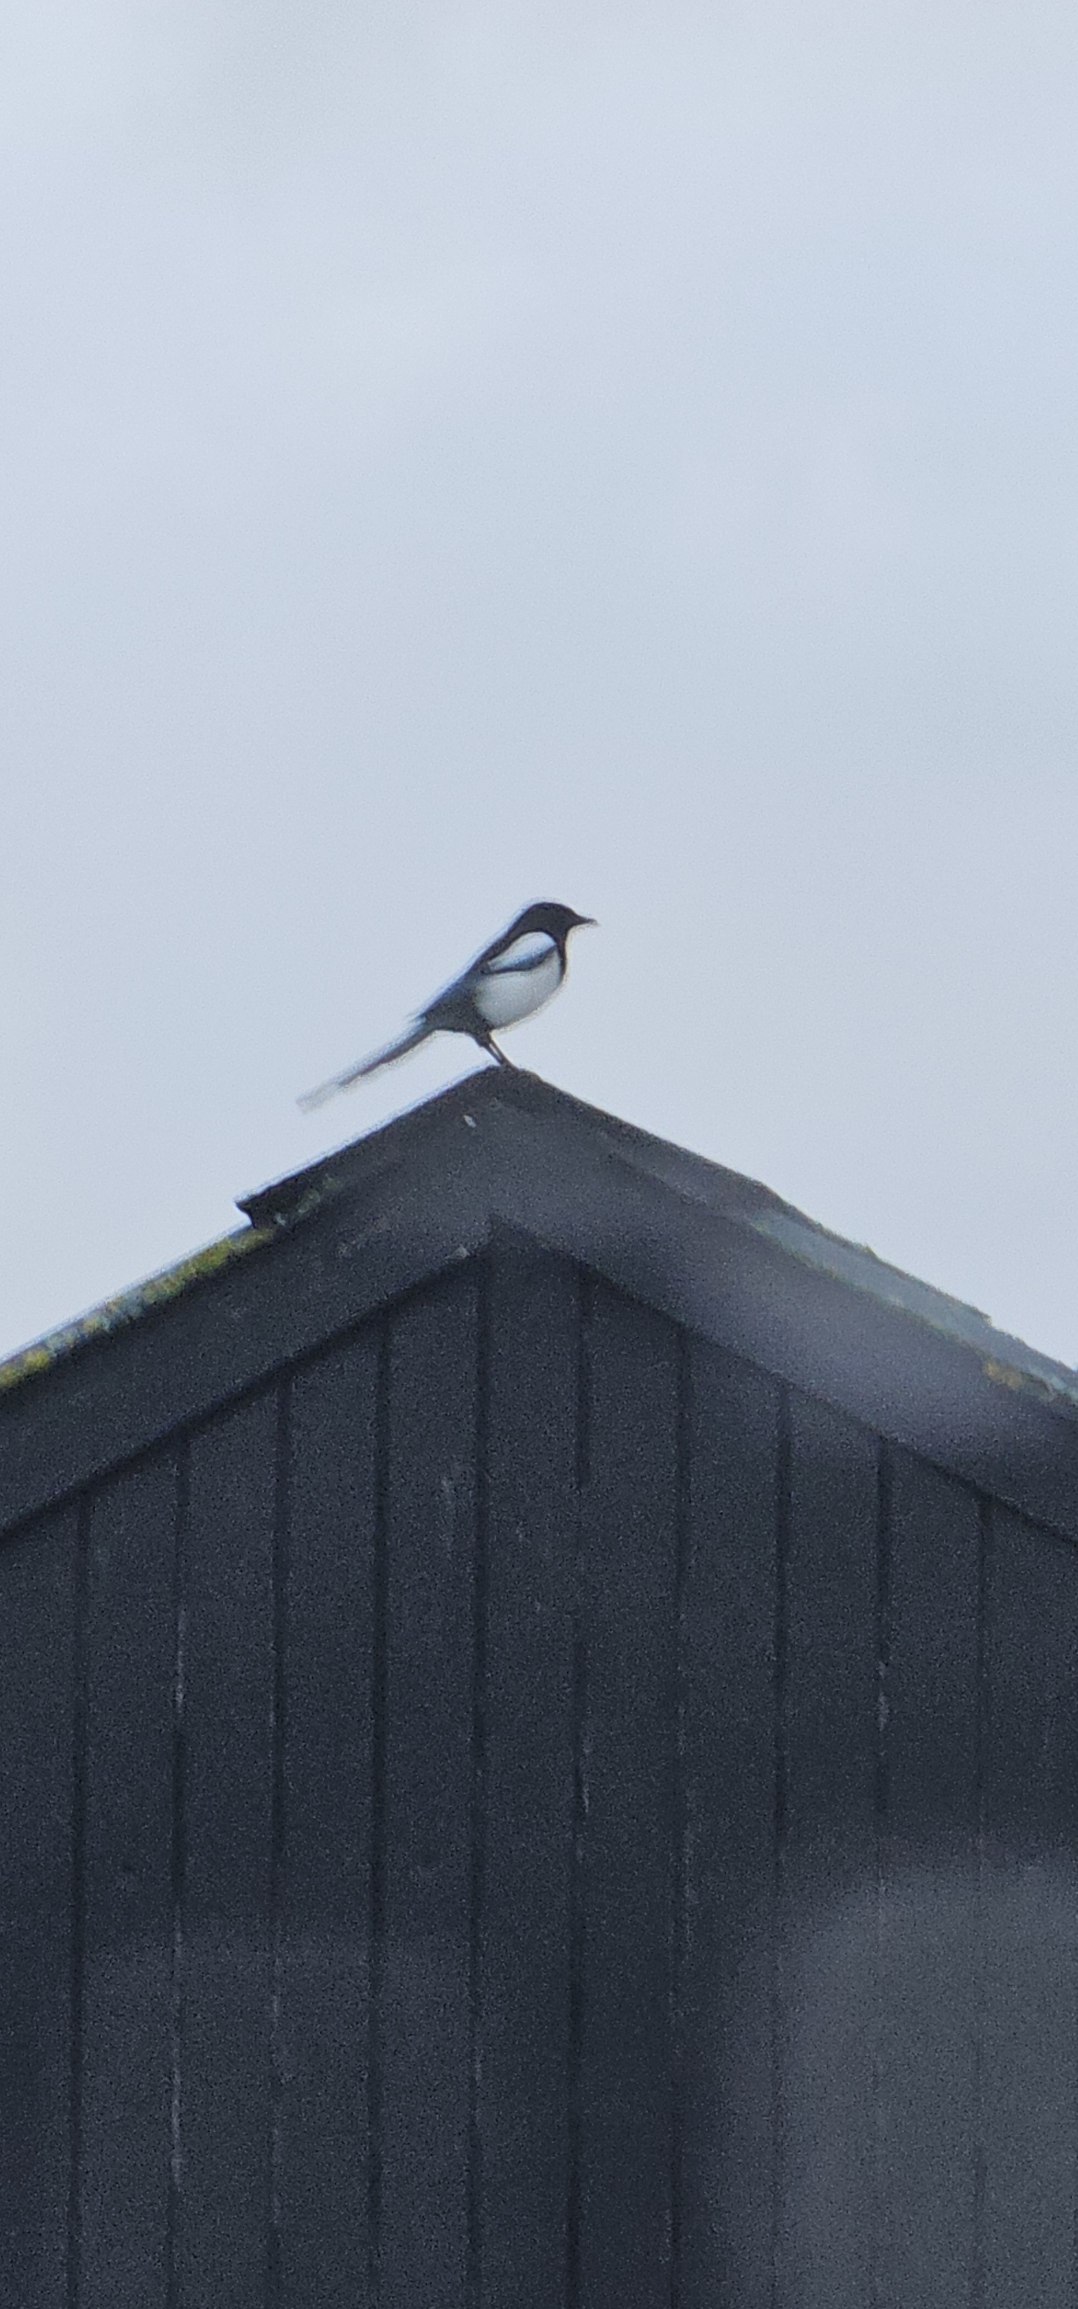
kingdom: Animalia
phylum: Chordata
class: Aves
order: Passeriformes
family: Corvidae
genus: Pica
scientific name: Pica pica
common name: Husskade
